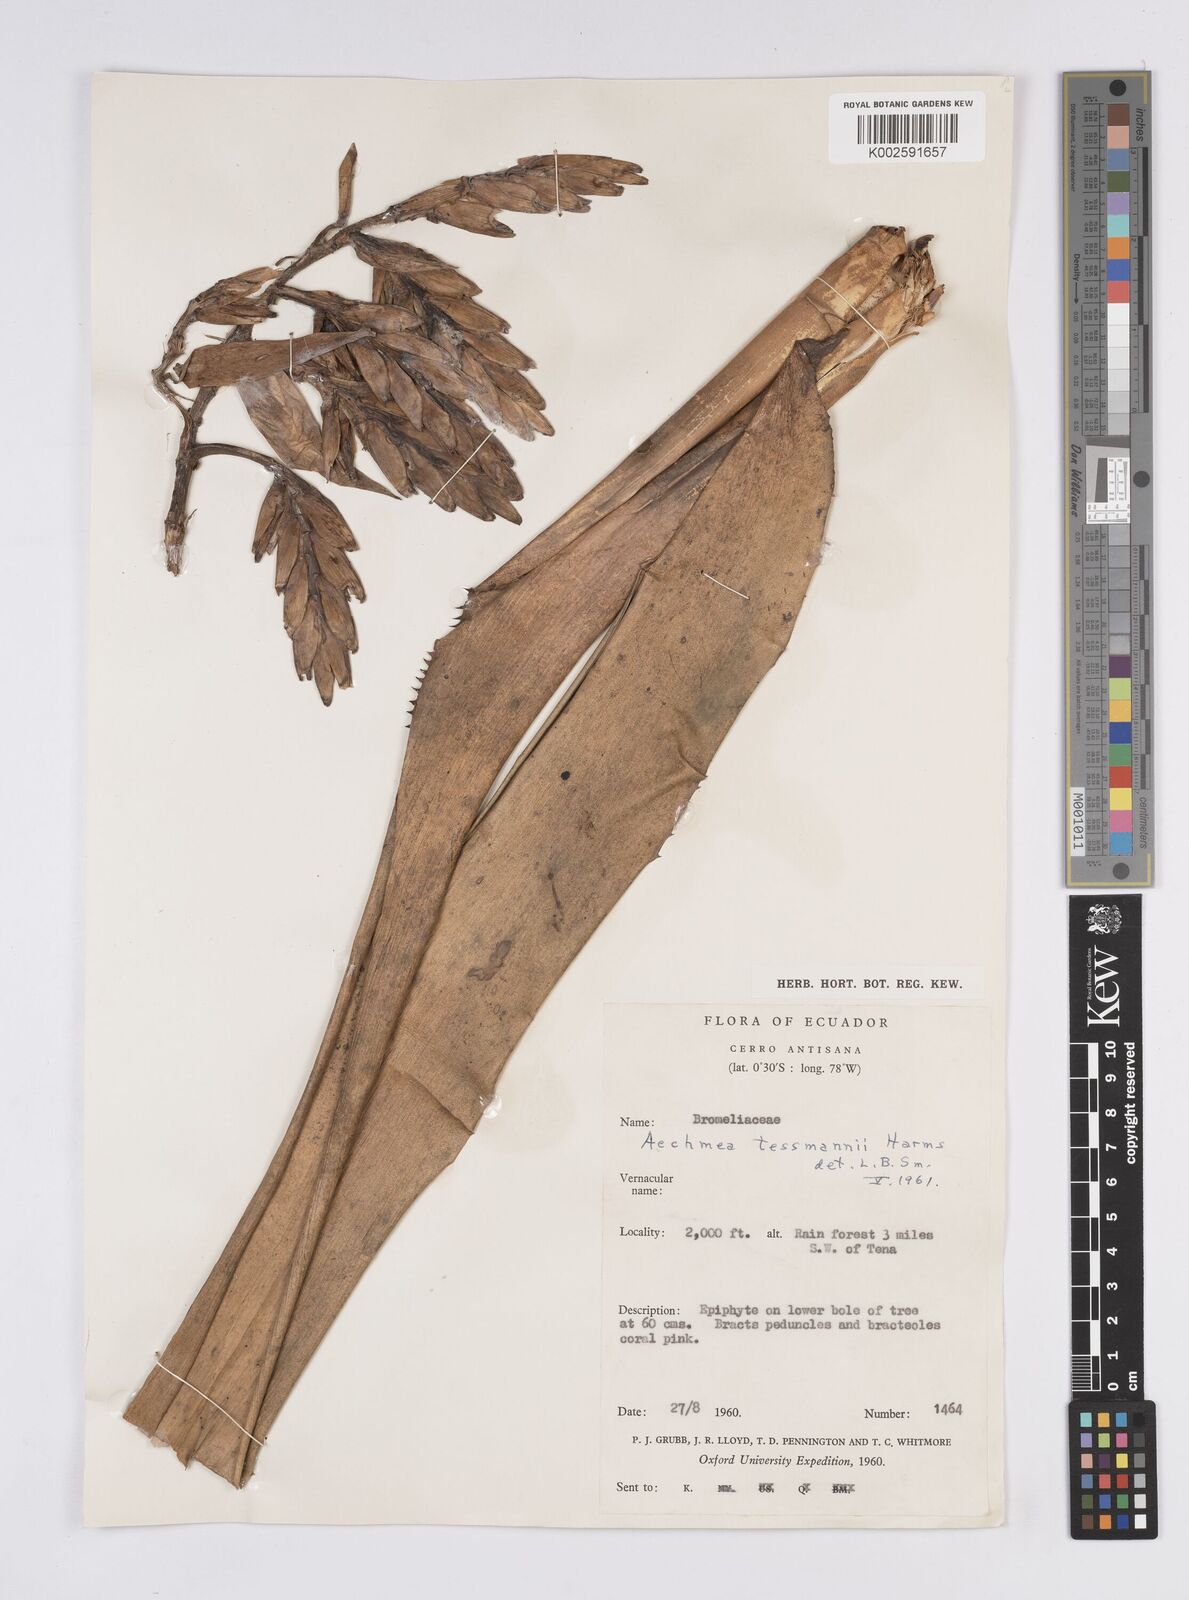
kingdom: Plantae
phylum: Tracheophyta
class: Liliopsida
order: Poales
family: Bromeliaceae
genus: Aechmea
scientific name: Aechmea tessmannii
